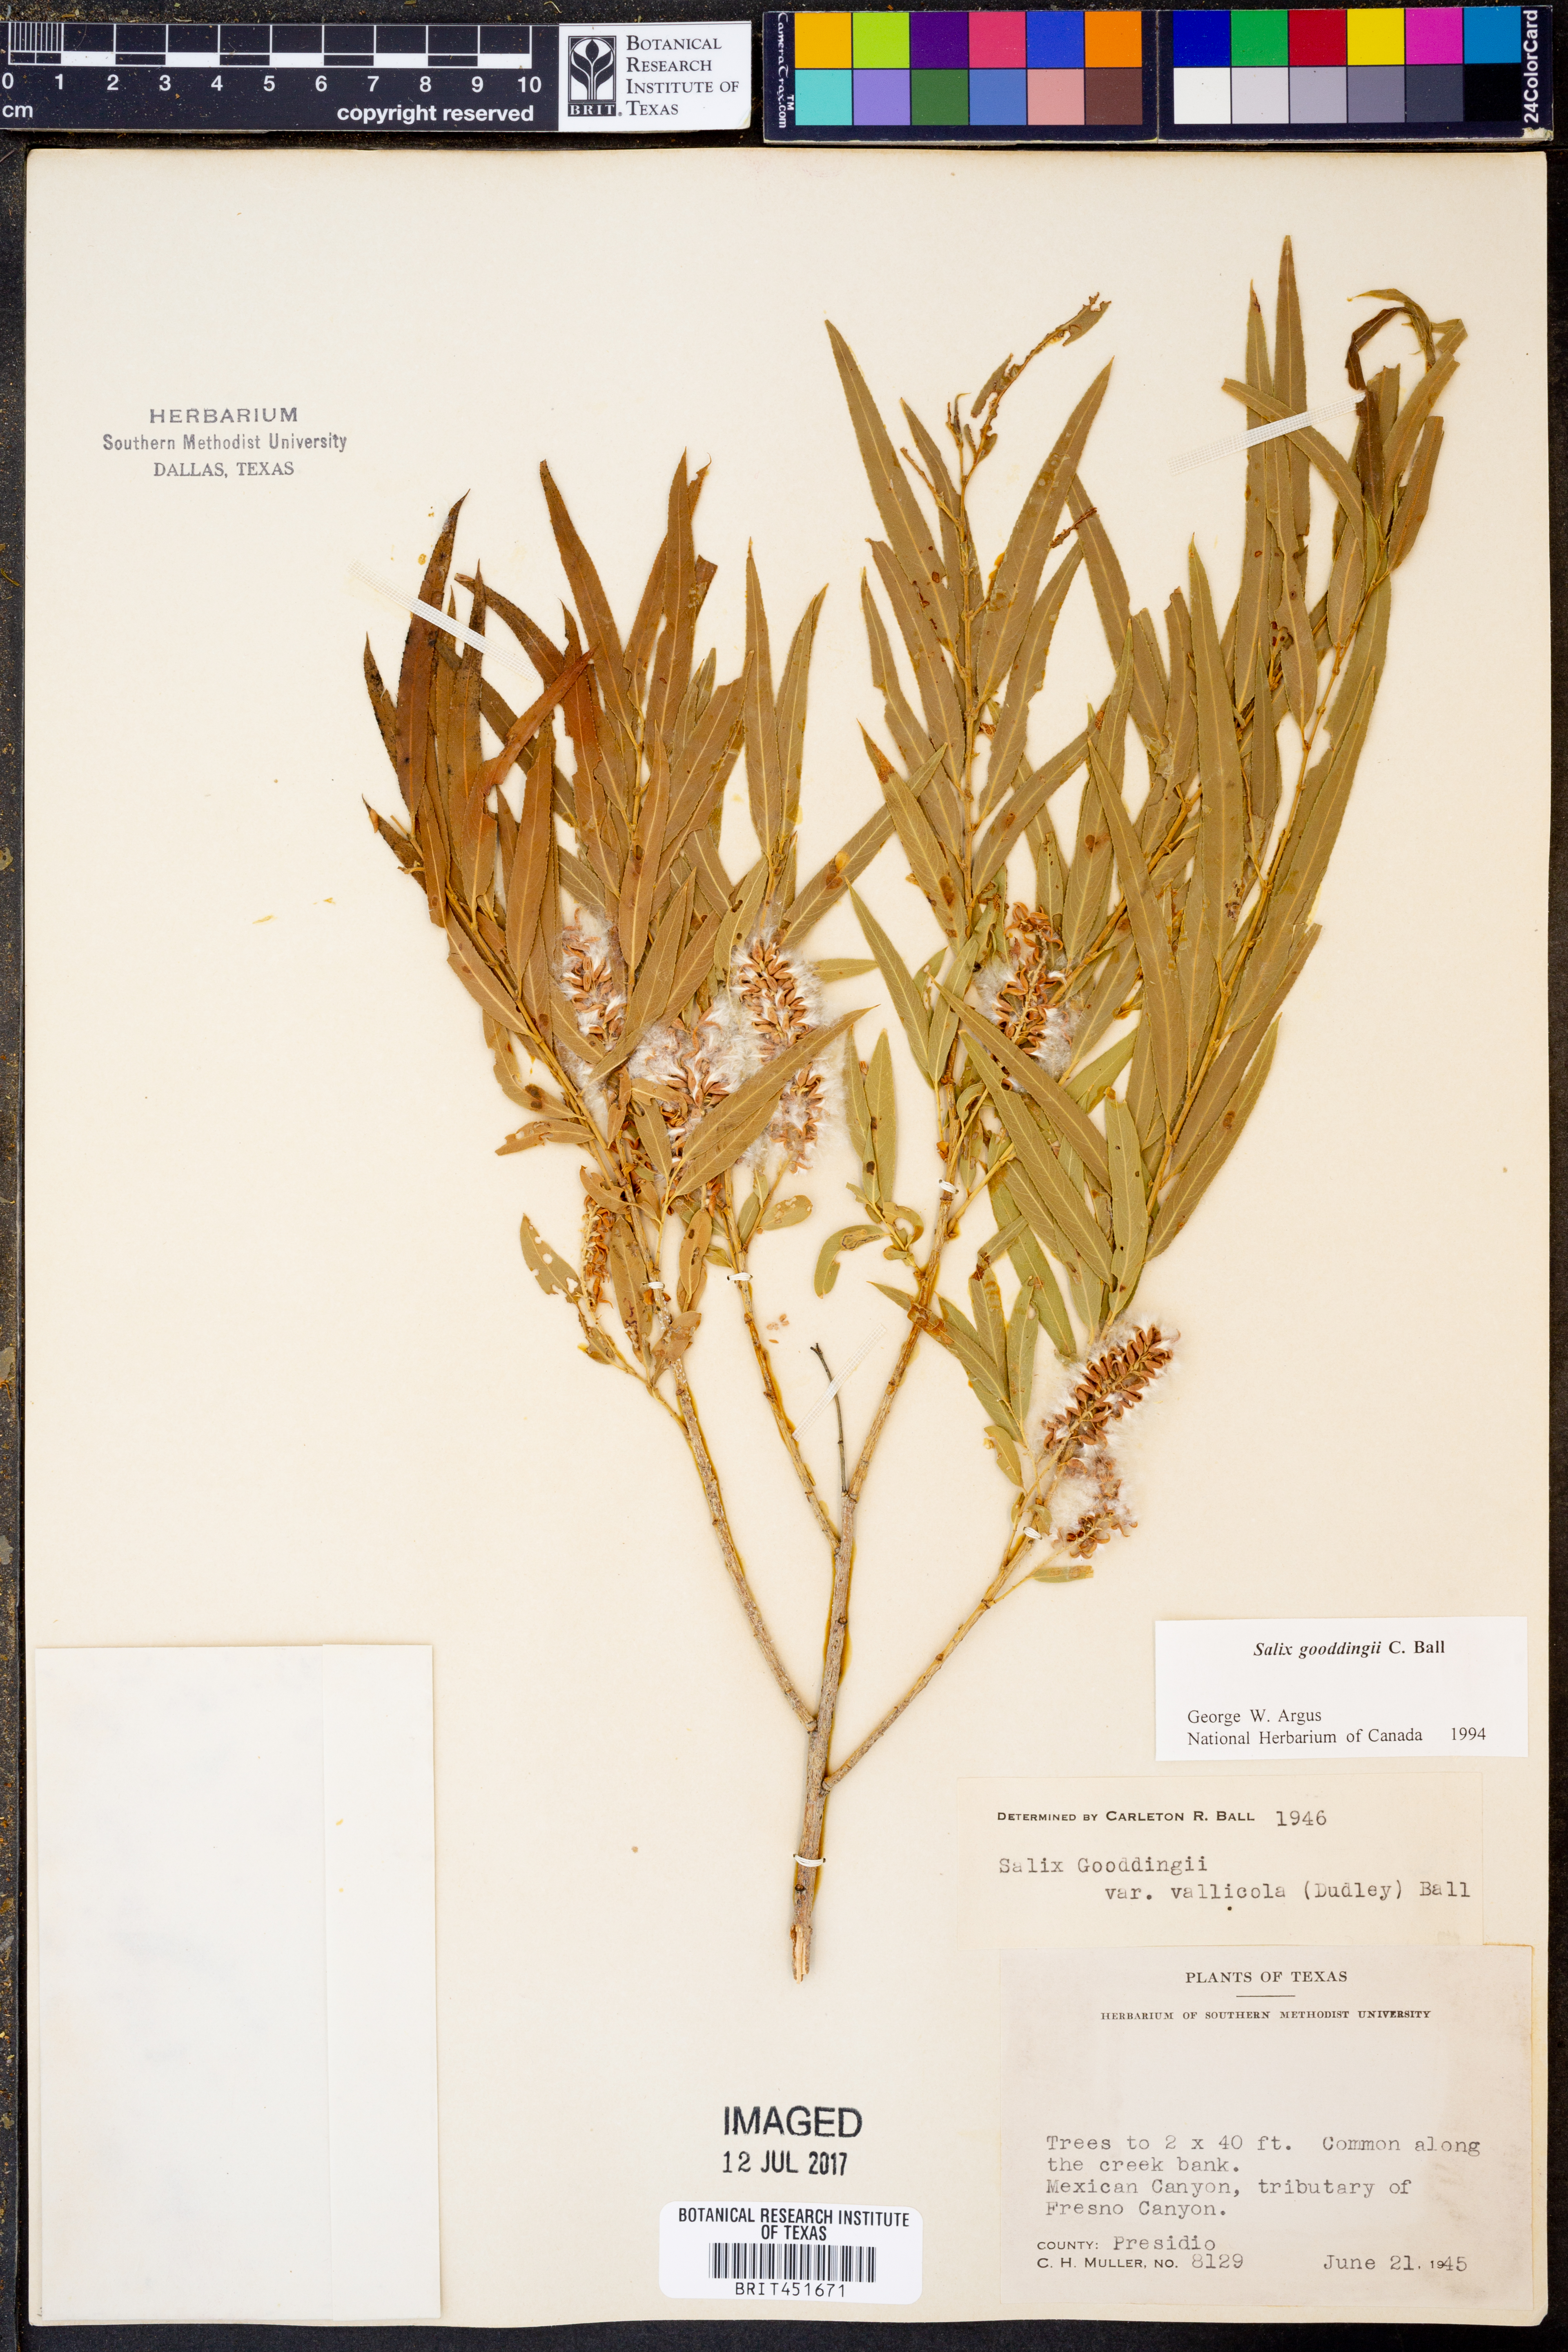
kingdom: Plantae
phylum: Tracheophyta
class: Magnoliopsida
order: Malpighiales
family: Salicaceae
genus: Salix
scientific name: Salix gooddingii
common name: Goodding's willow
